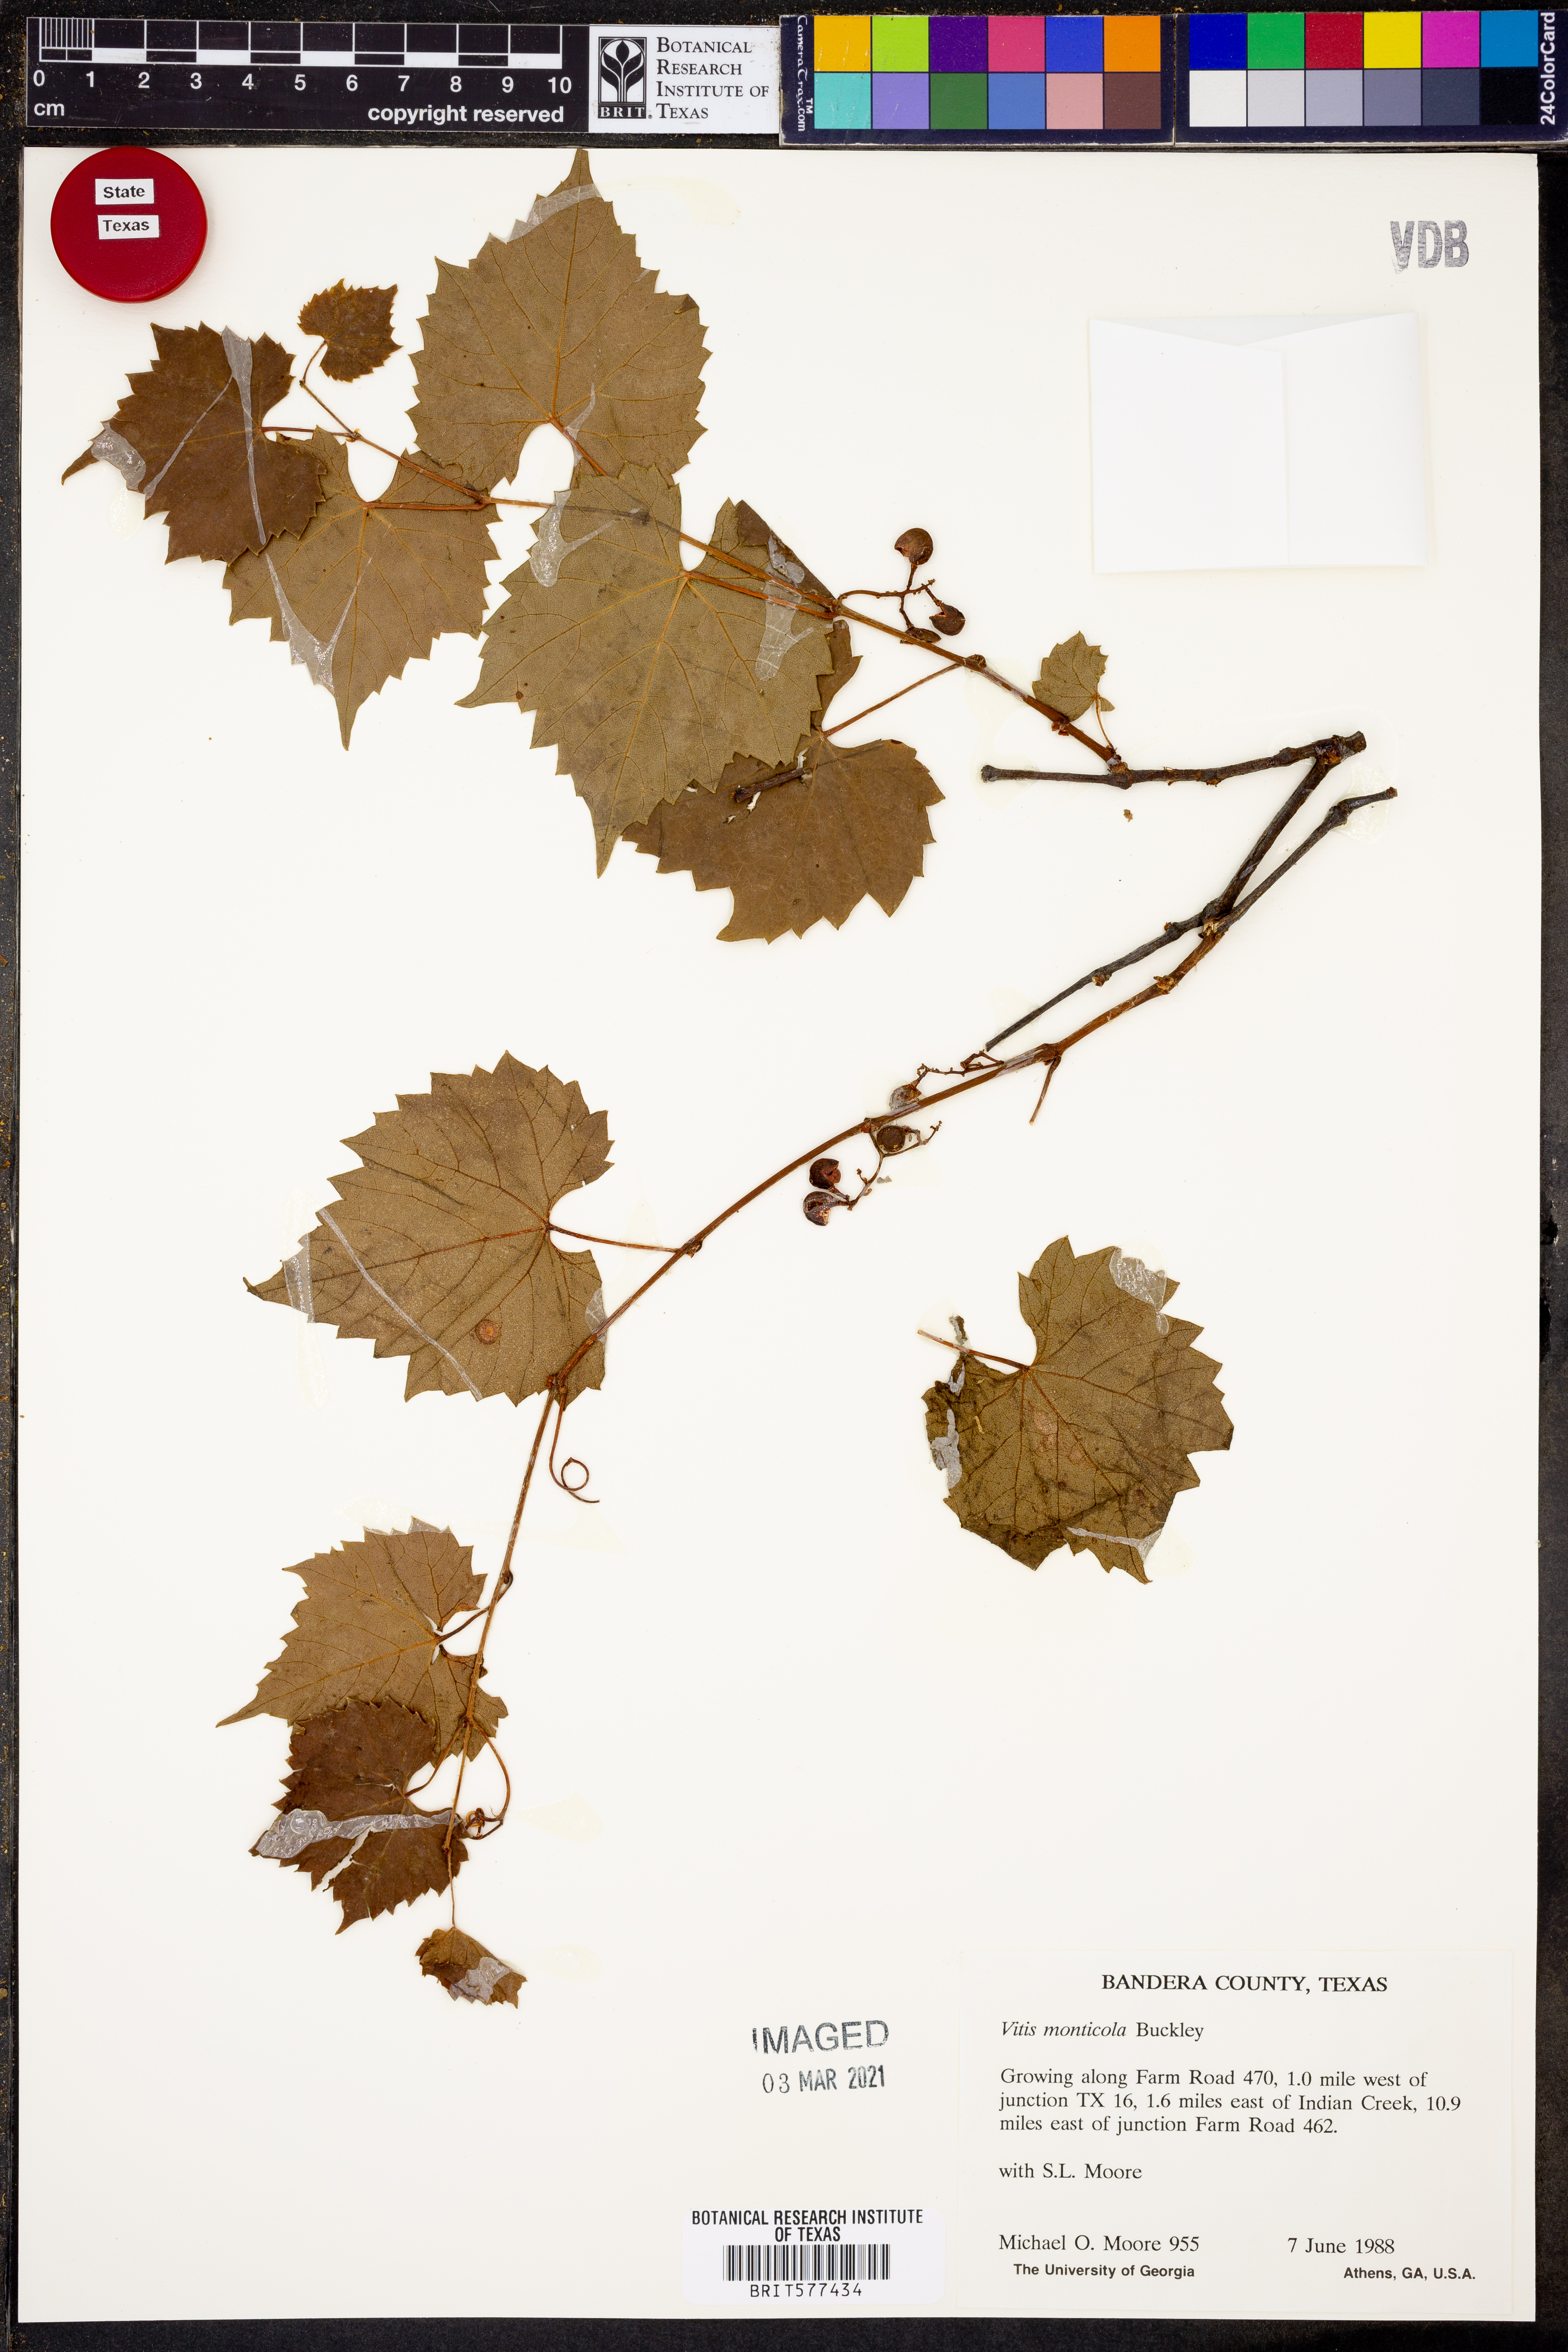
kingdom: Plantae
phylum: Tracheophyta
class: Magnoliopsida
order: Vitales
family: Vitaceae
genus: Vitis
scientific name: Vitis monticola
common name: Mountain grape
